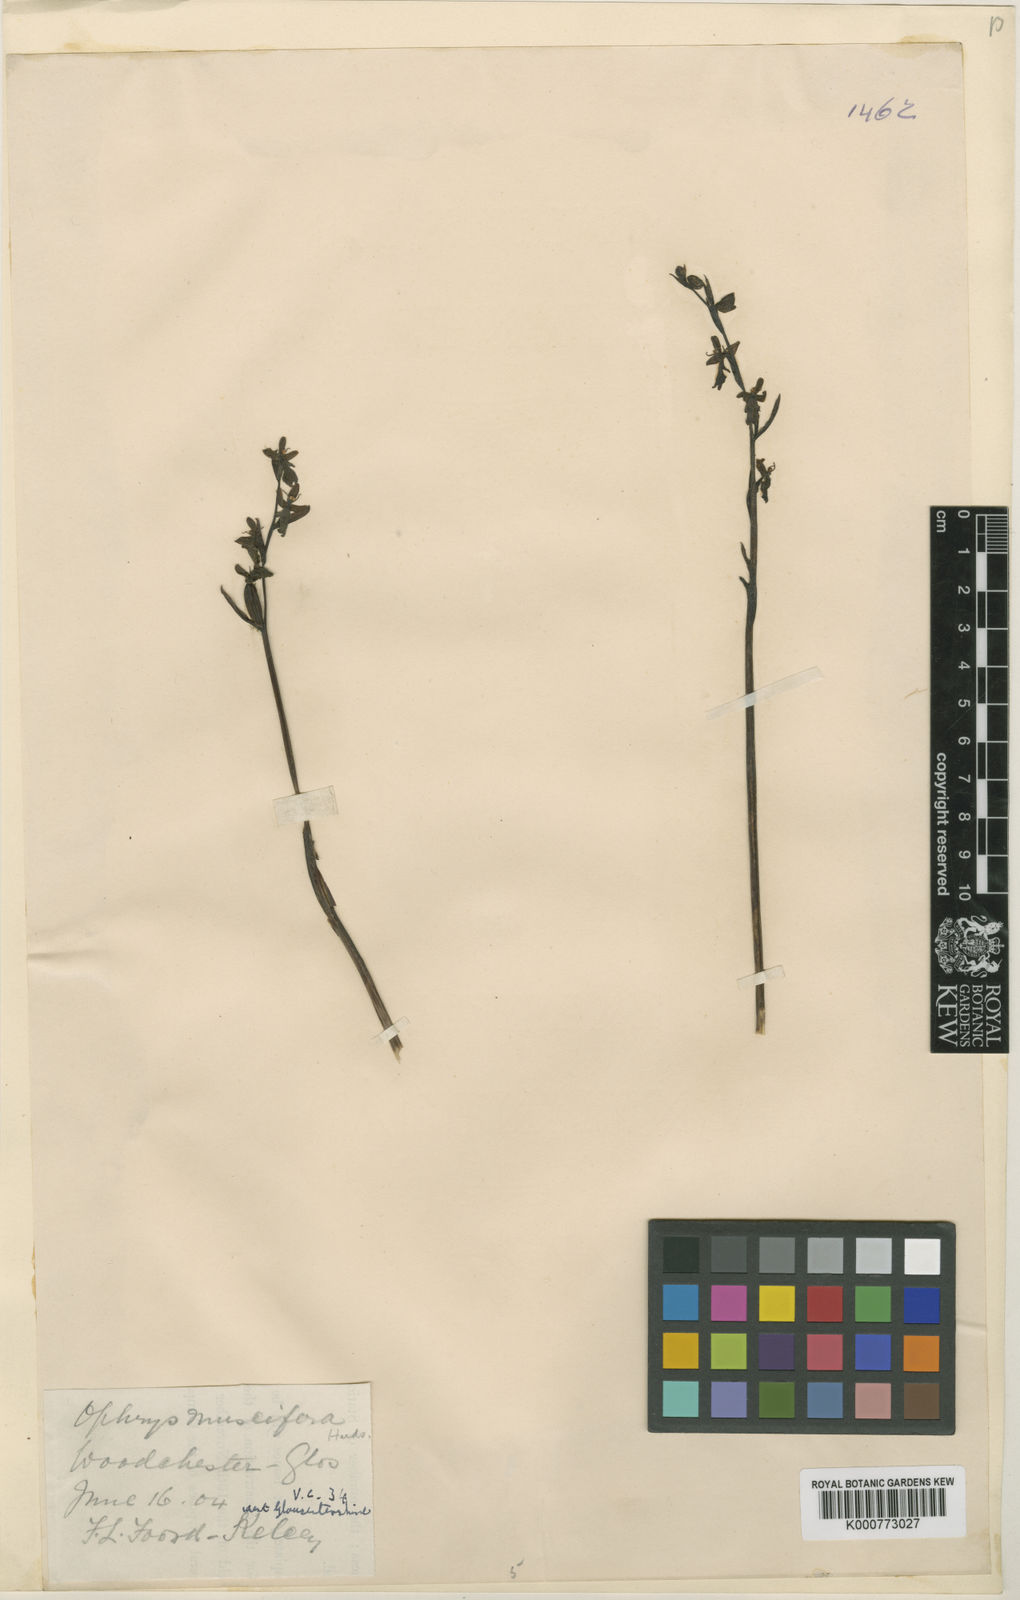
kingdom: Plantae
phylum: Tracheophyta
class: Liliopsida
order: Asparagales
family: Orchidaceae
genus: Ophrys
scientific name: Ophrys insectifera
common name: Fly orchid
